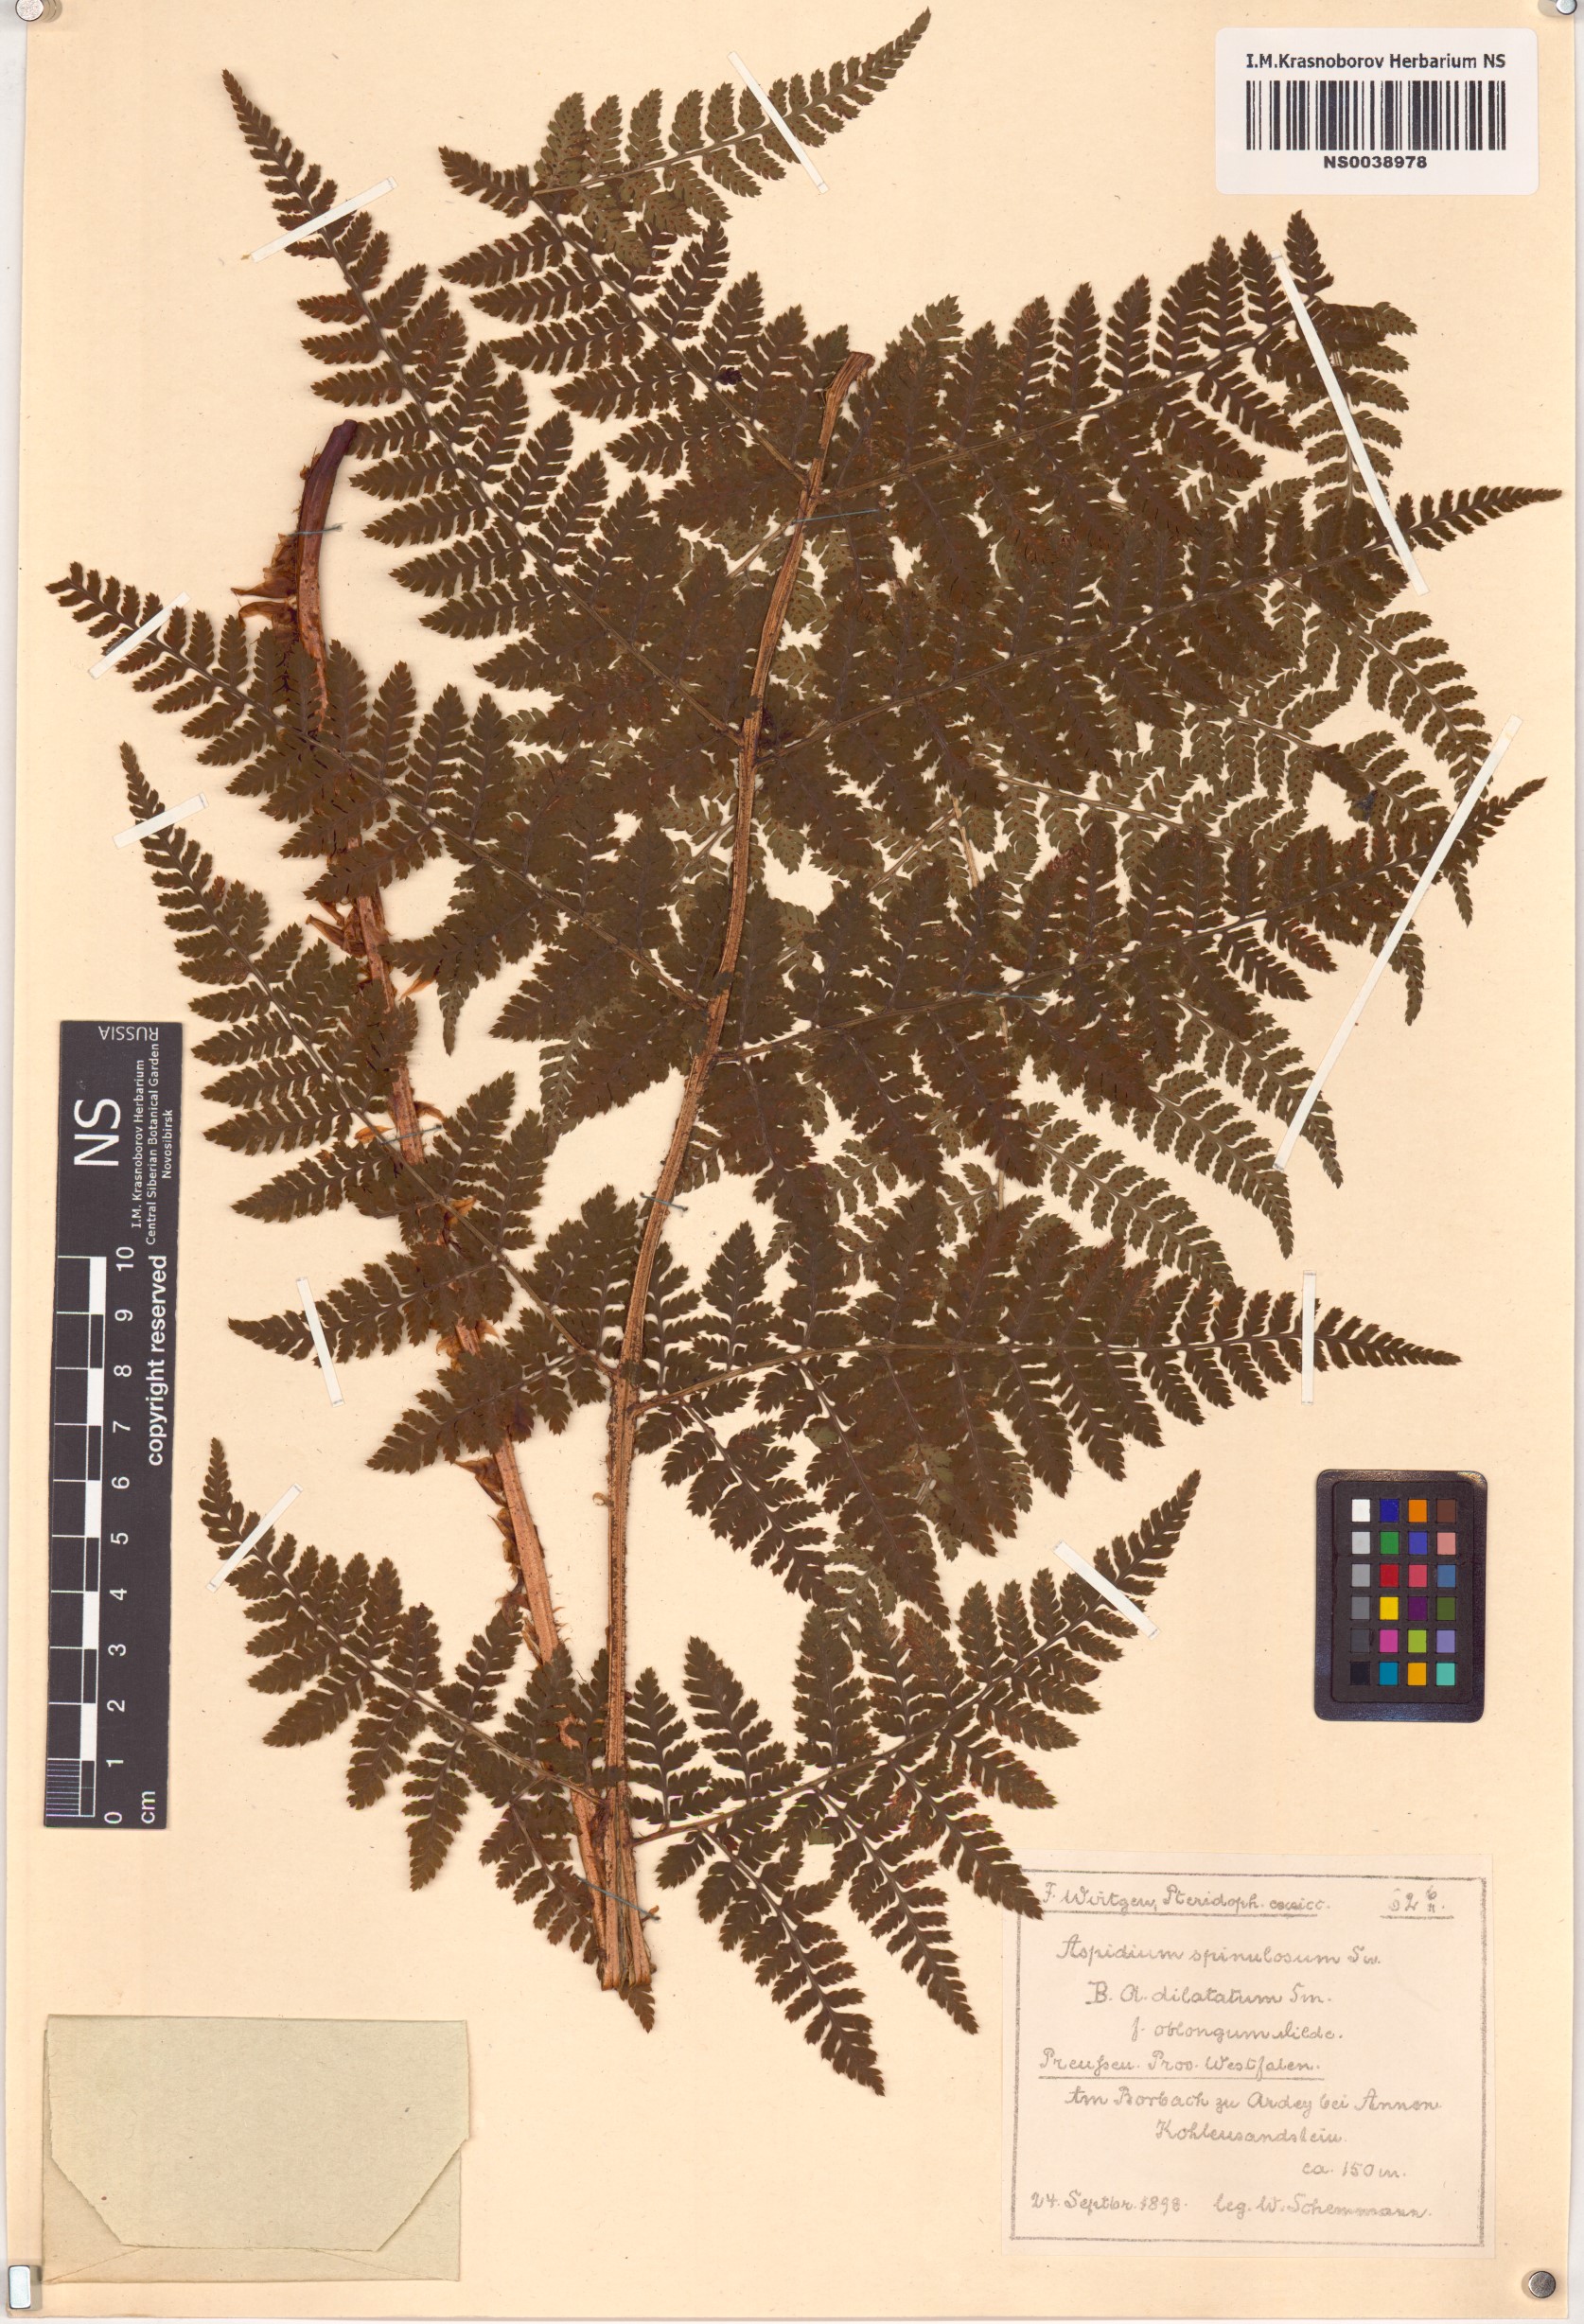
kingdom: Plantae
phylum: Tracheophyta
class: Polypodiopsida
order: Polypodiales
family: Dryopteridaceae
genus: Dryopteris
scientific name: Dryopteris carthusiana
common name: Narrow buckler-fern
